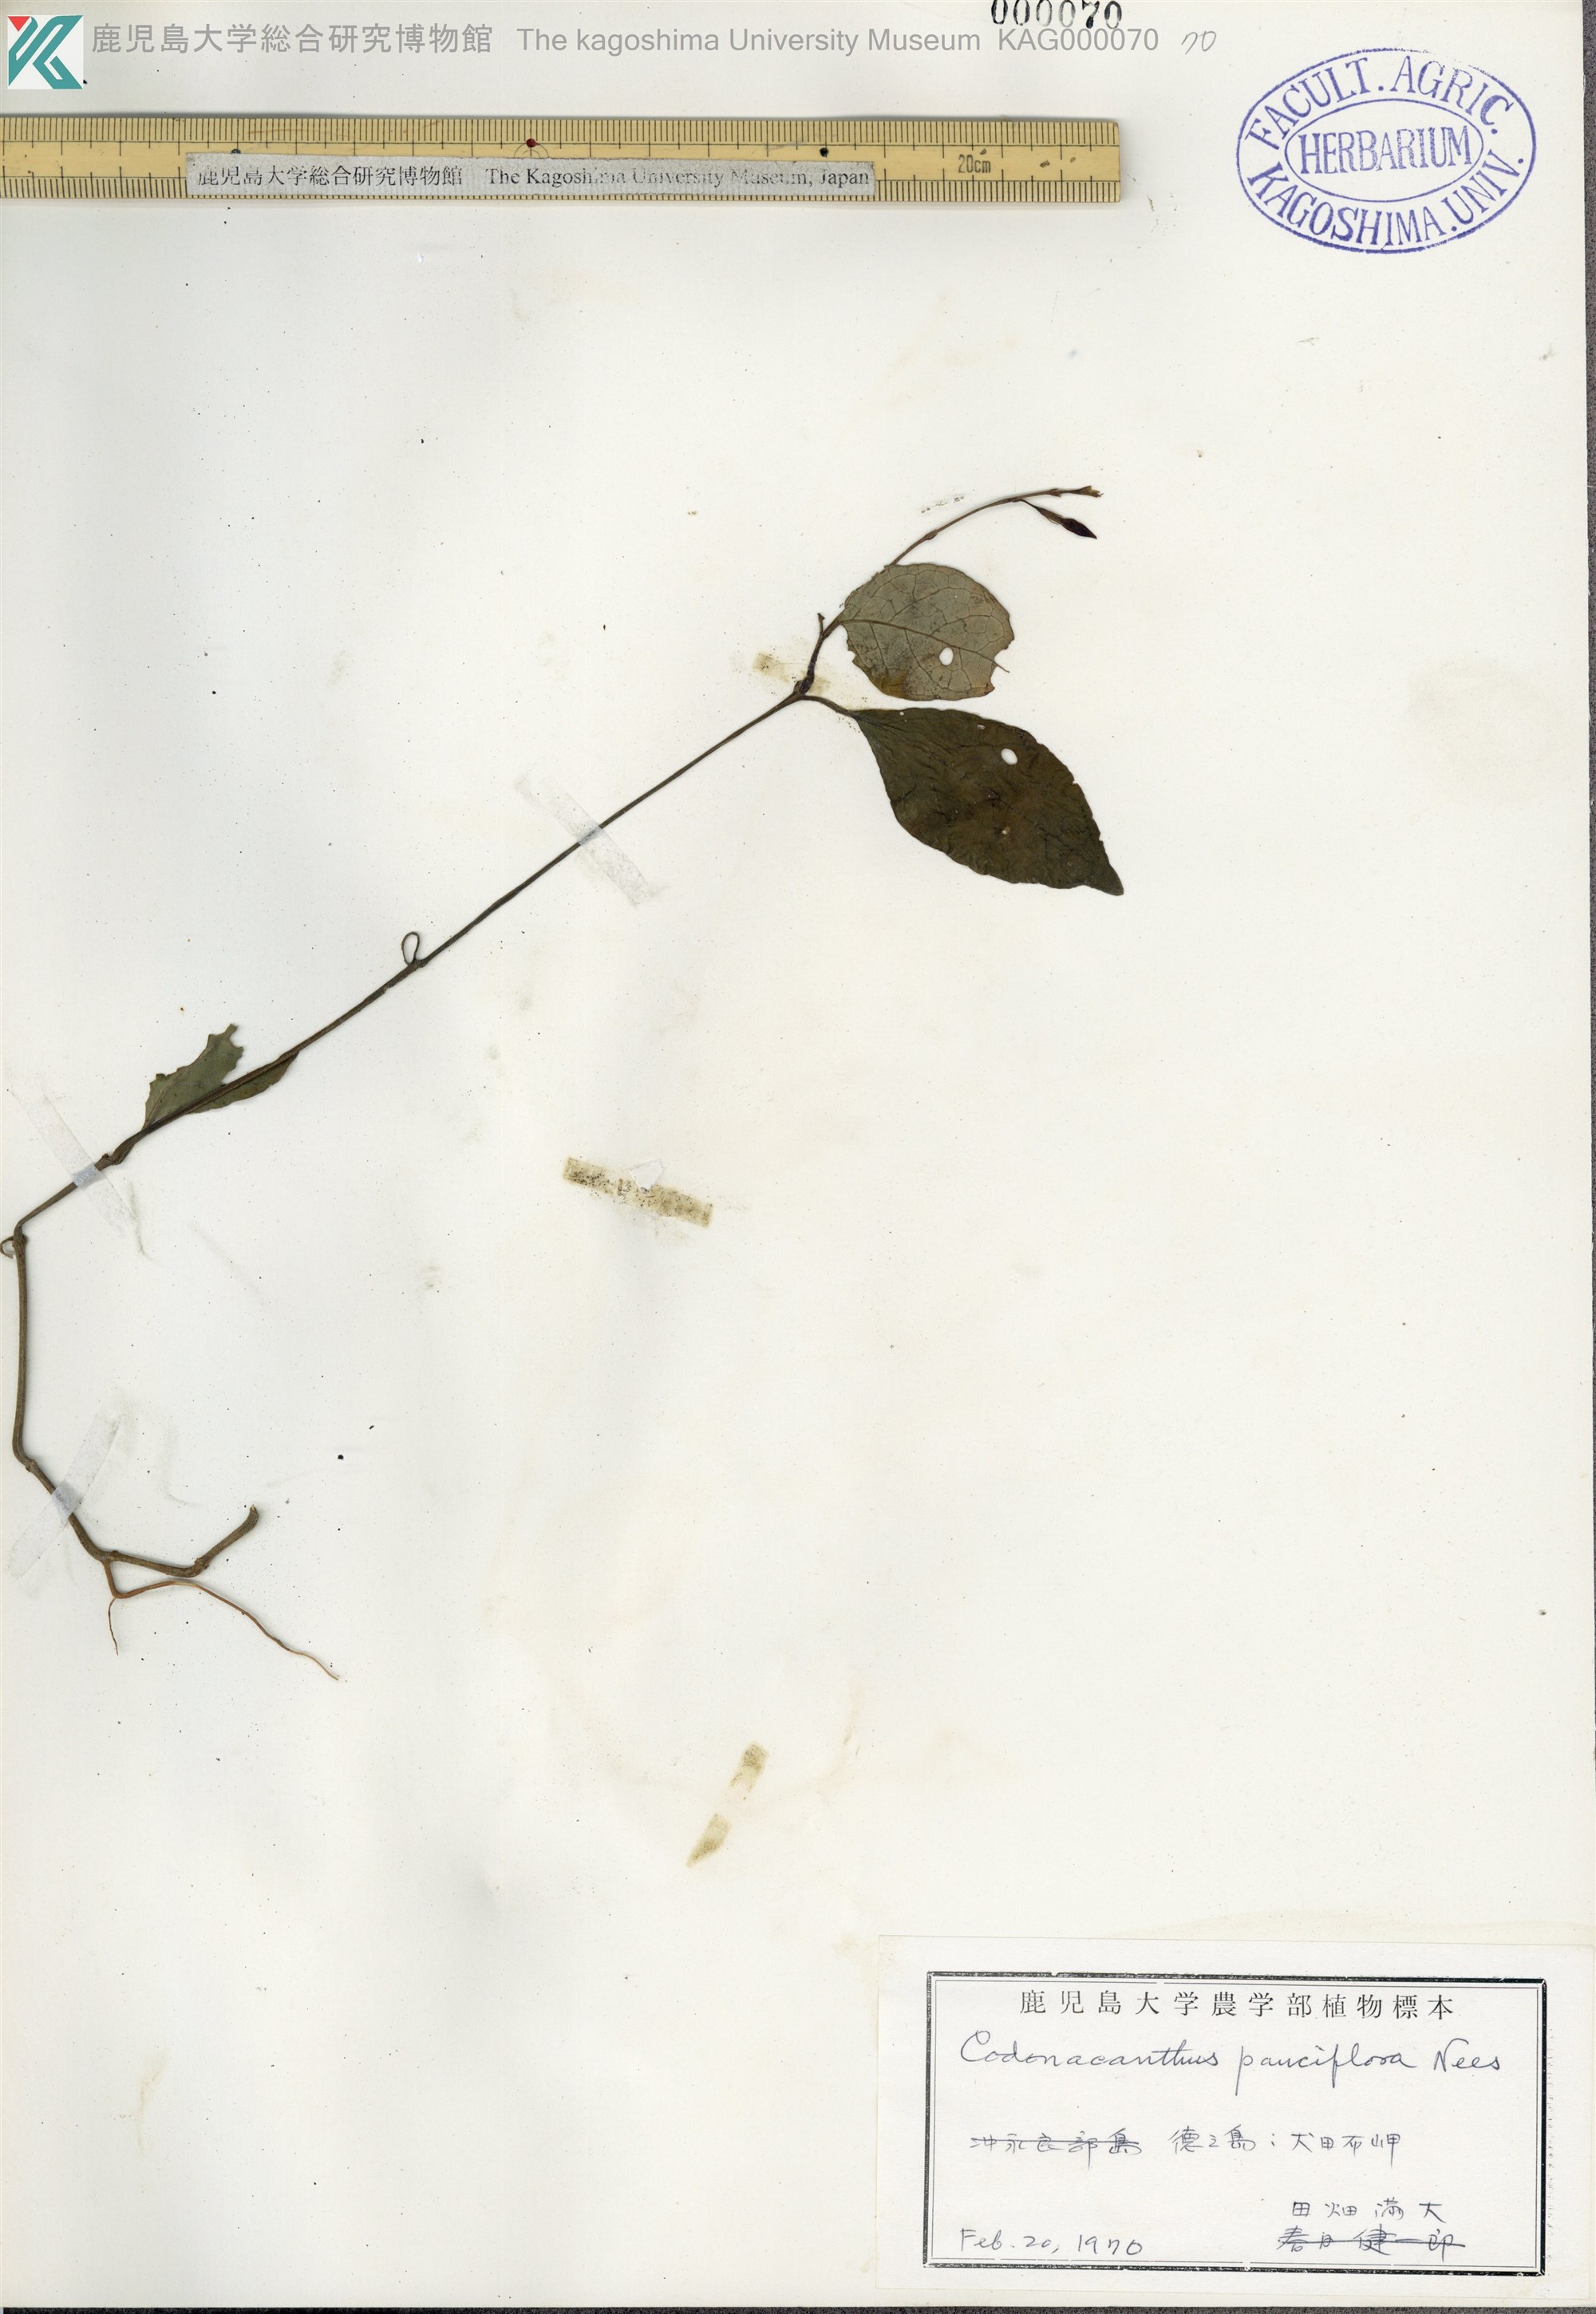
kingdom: Plantae
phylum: Tracheophyta
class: Magnoliopsida
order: Lamiales
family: Acanthaceae
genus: Codonacanthus
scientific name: Codonacanthus pauciflorus
